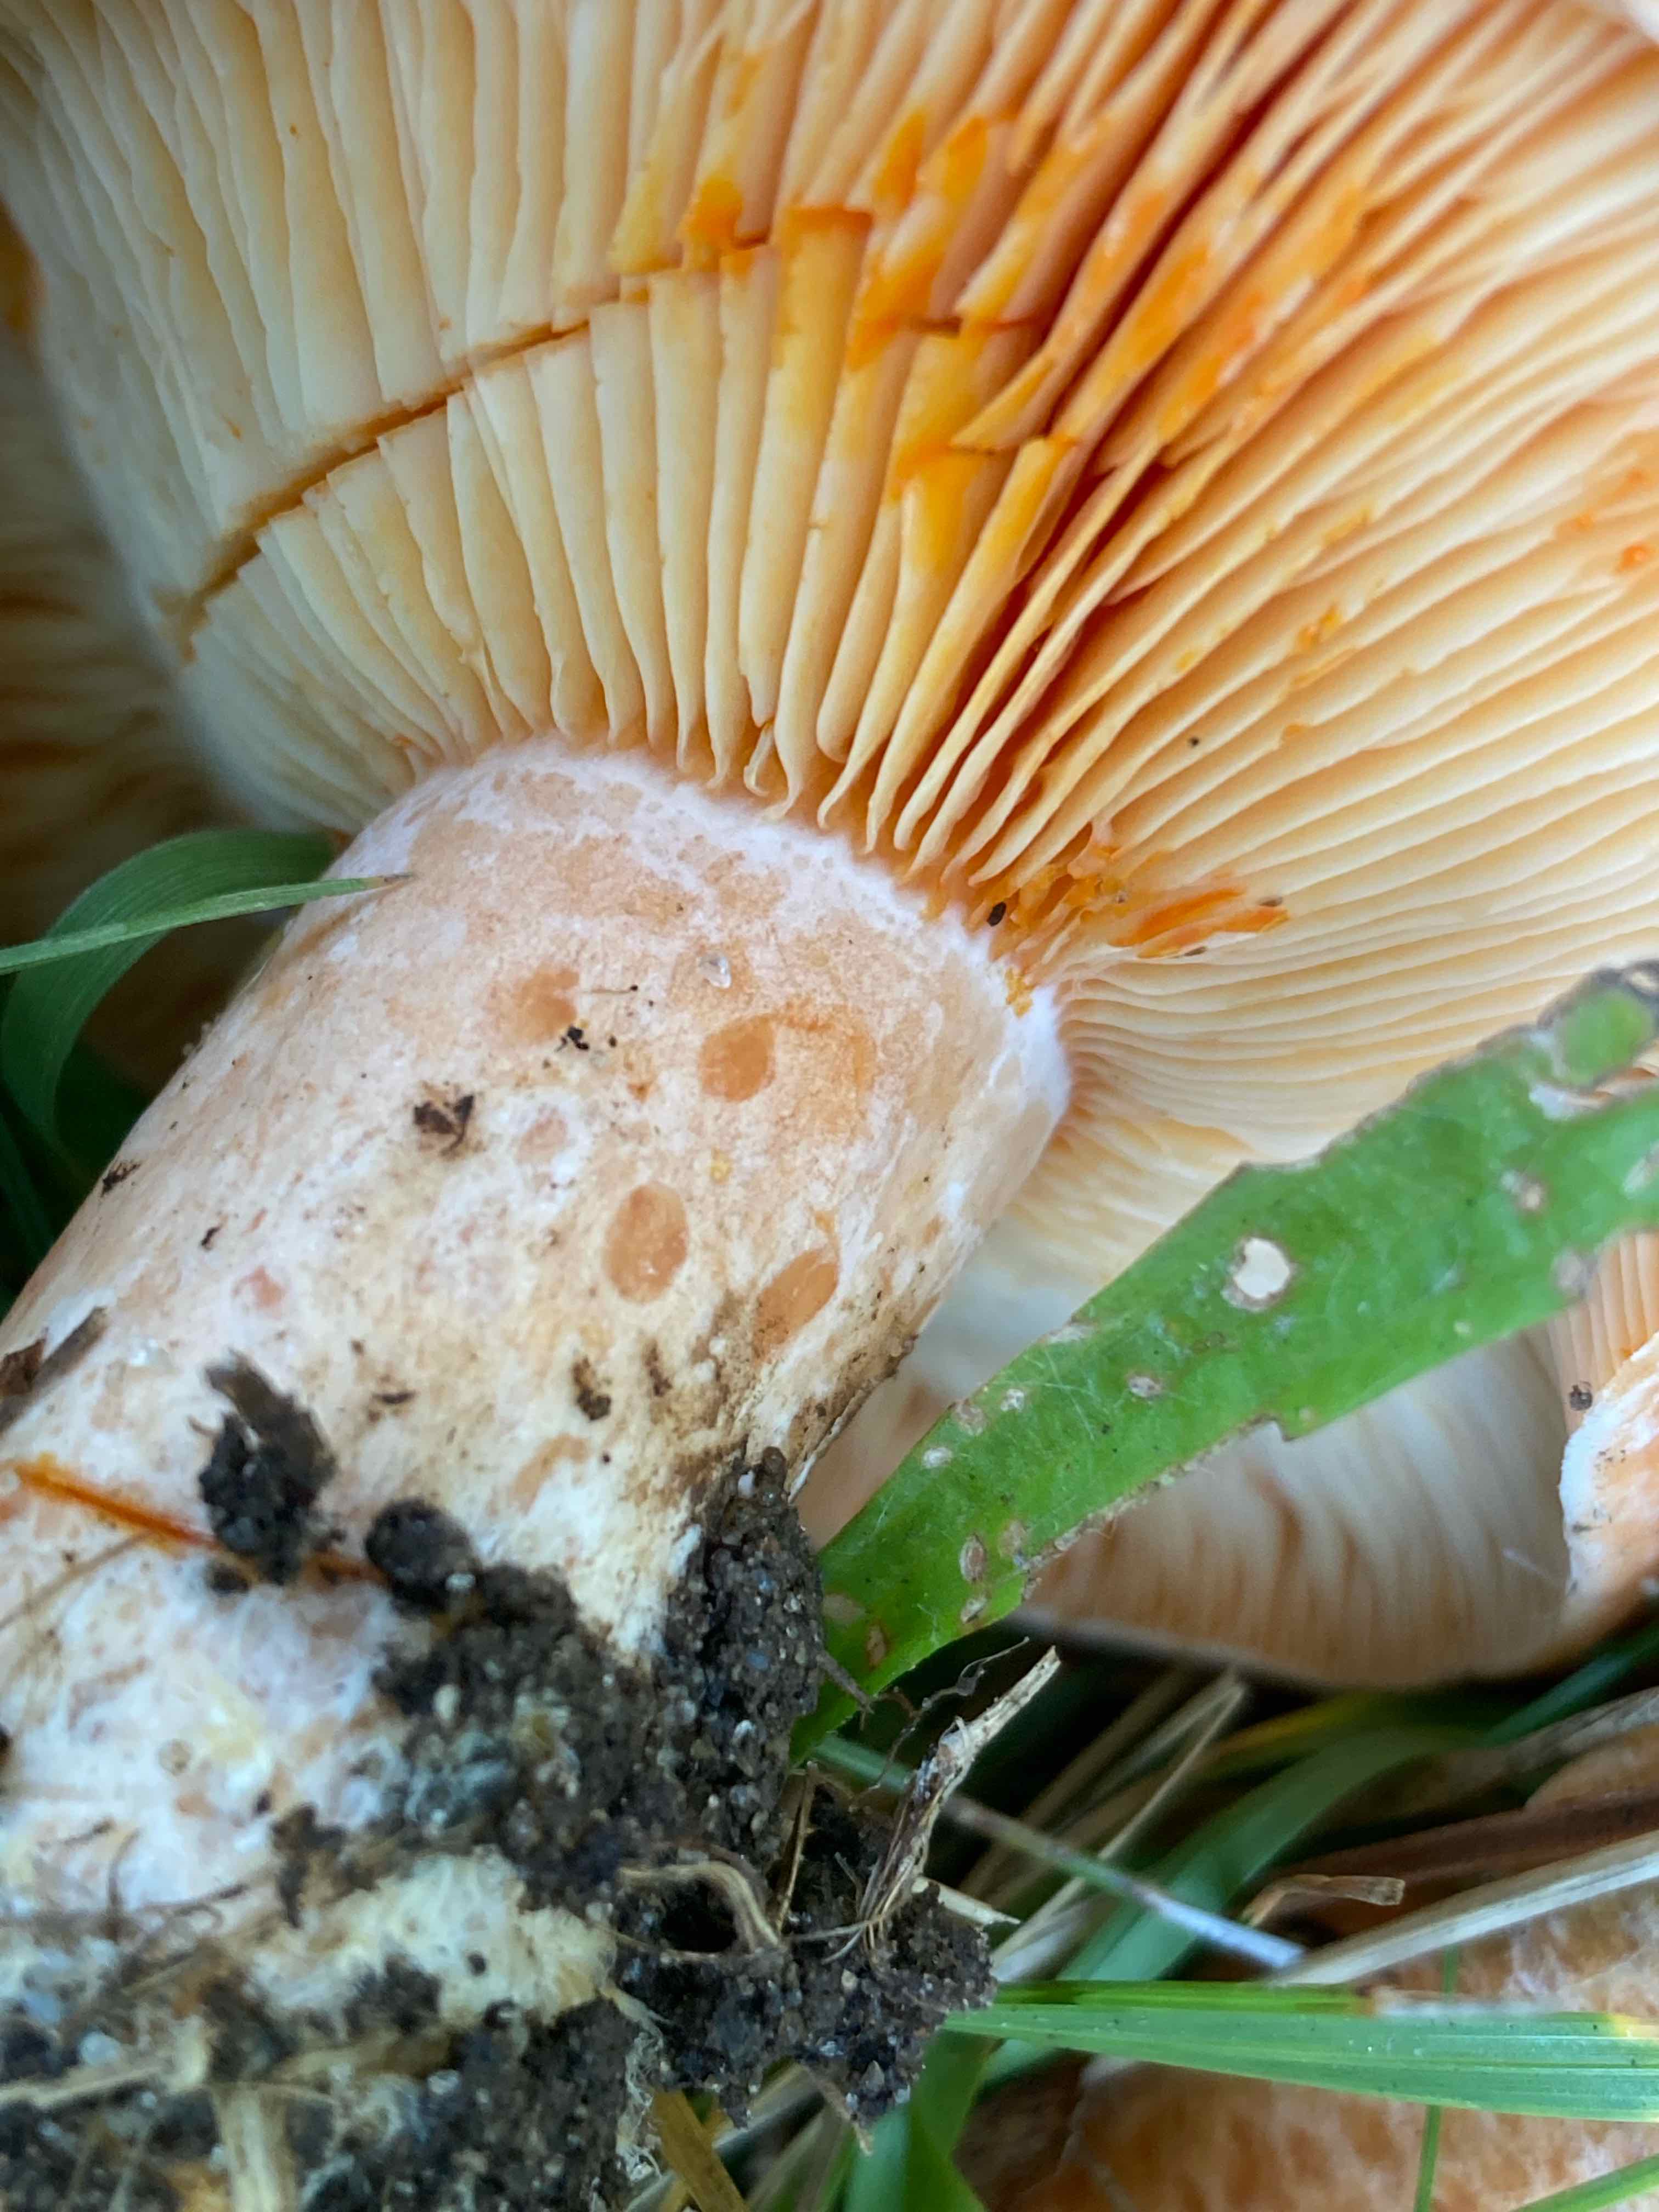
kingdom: Fungi
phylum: Basidiomycota
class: Agaricomycetes
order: Russulales
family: Russulaceae
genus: Lactarius
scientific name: Lactarius deliciosus
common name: velsmagende mælkehat
